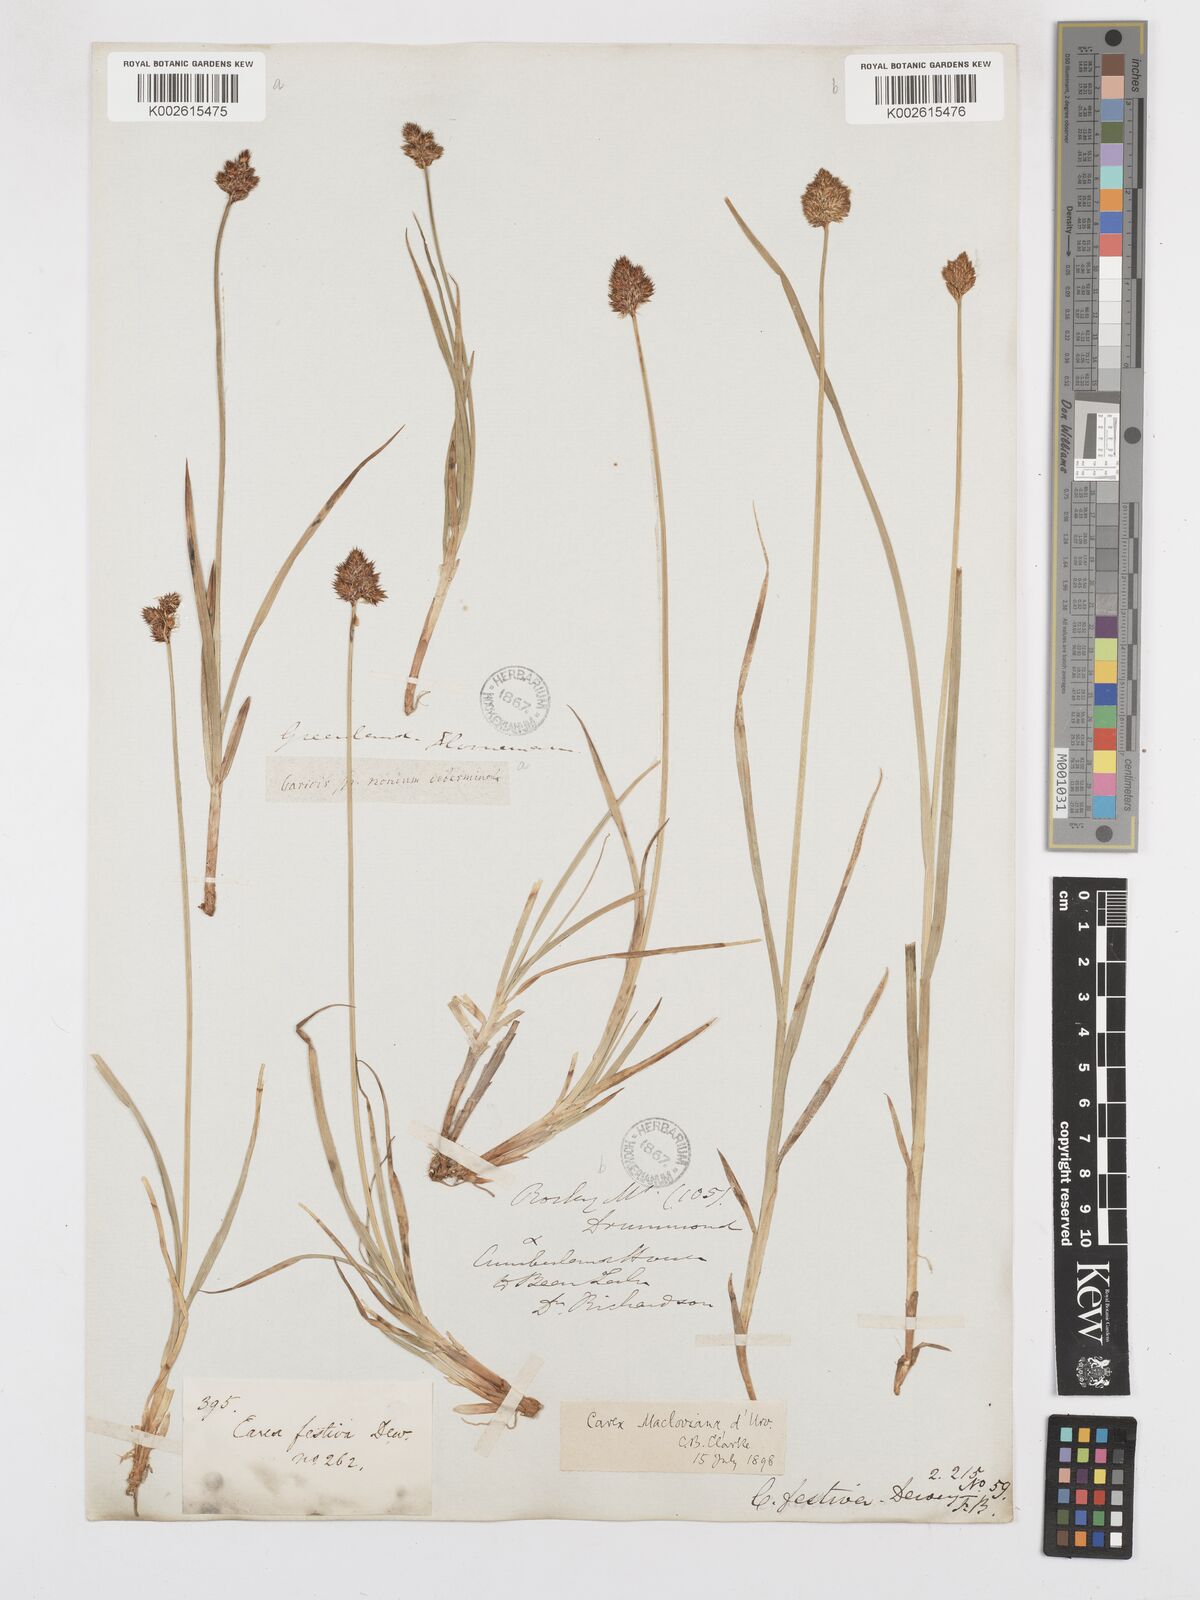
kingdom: Plantae
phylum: Tracheophyta
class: Liliopsida
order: Poales
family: Cyperaceae
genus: Carex
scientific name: Carex
